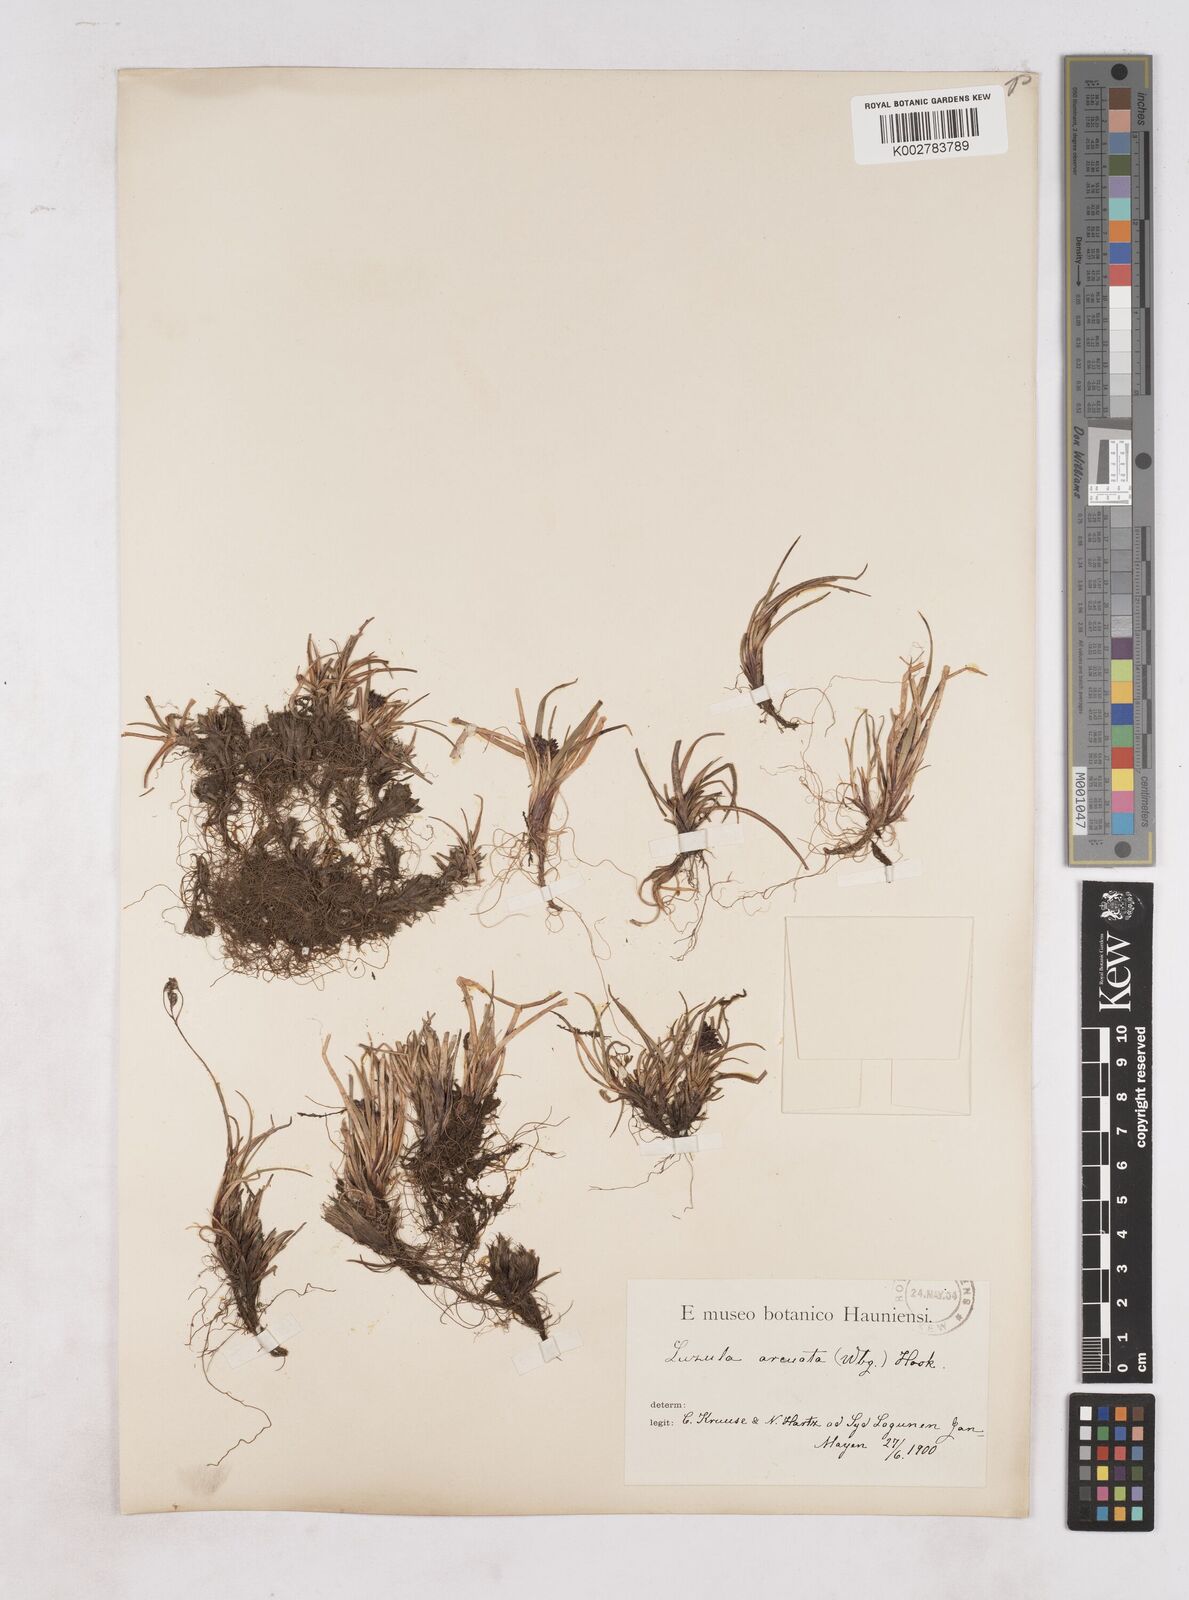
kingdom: Plantae
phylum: Tracheophyta
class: Liliopsida
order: Poales
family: Juncaceae
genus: Luzula
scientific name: Luzula nivalis
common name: Arctic woodrush
